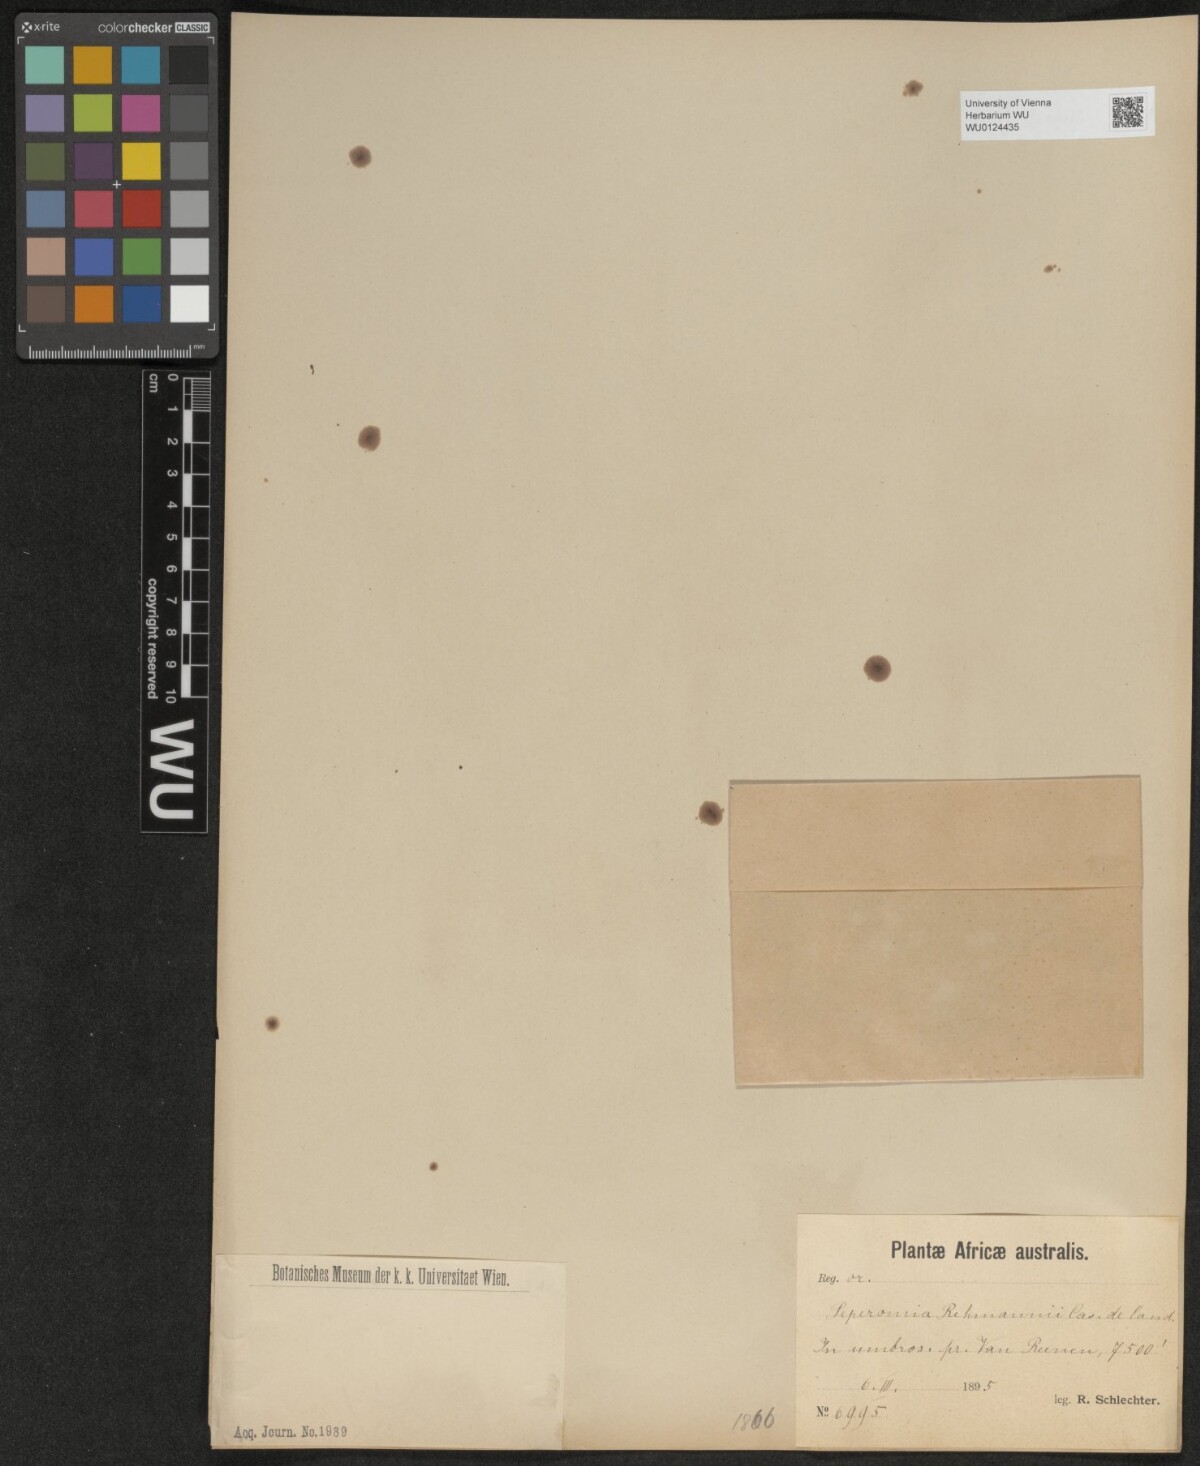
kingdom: Plantae
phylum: Tracheophyta
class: Magnoliopsida
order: Piperales
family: Piperaceae
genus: Peperomia
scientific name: Peperomia retusa
